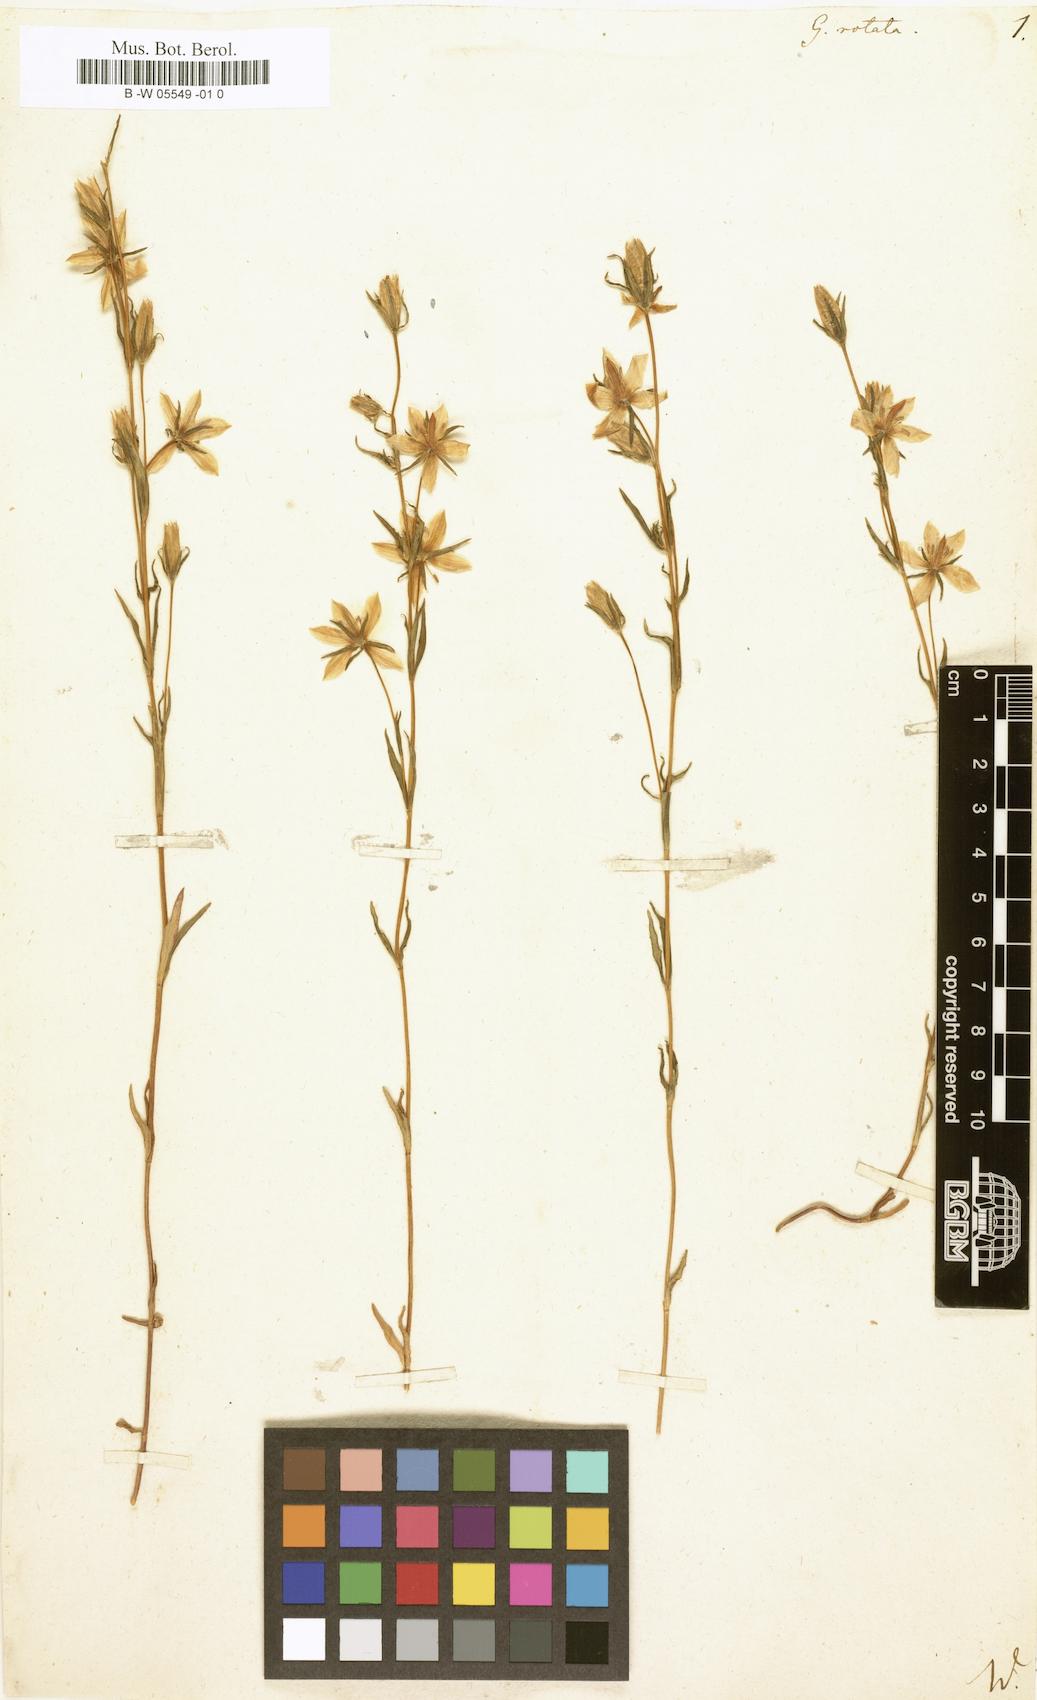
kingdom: Plantae
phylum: Tracheophyta
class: Magnoliopsida
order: Gentianales
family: Gentianaceae
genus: Lomatogonium
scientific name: Lomatogonium carinthiacum
